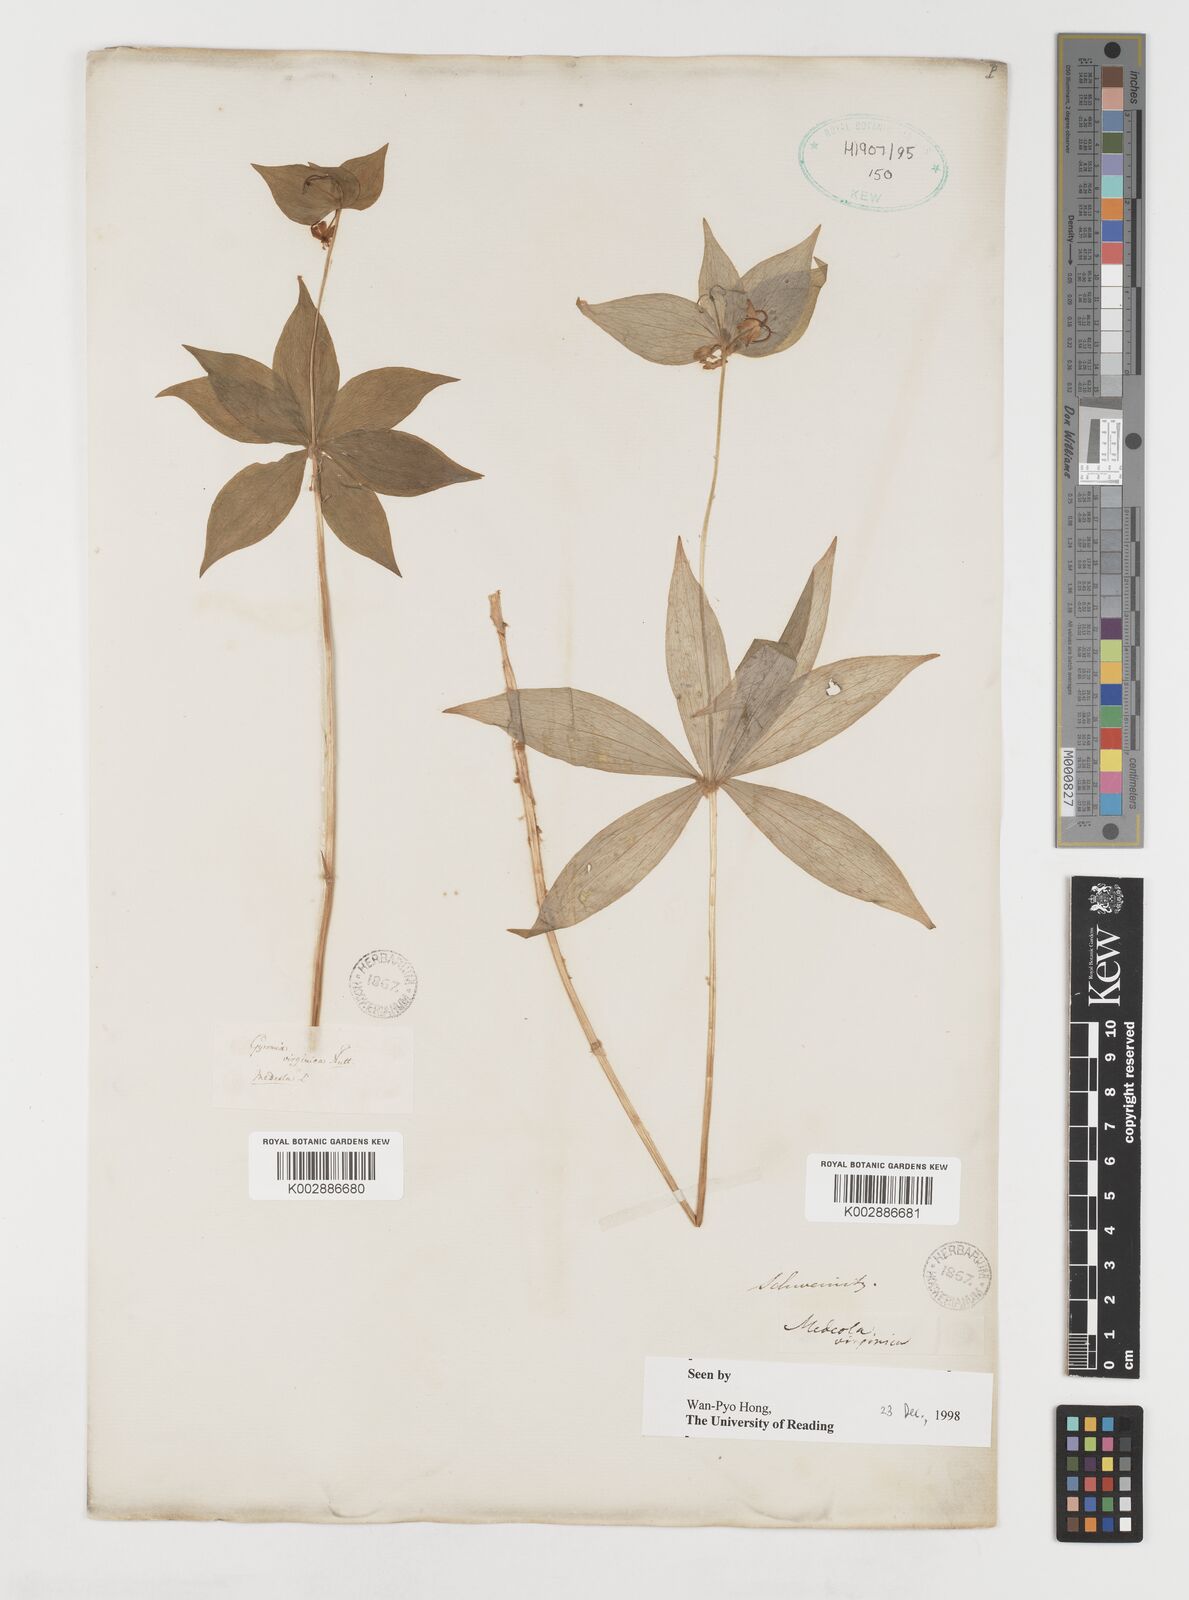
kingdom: Plantae
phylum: Tracheophyta
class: Liliopsida
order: Liliales
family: Liliaceae
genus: Medeola
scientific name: Medeola virginiana
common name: Indian cucumber-root
